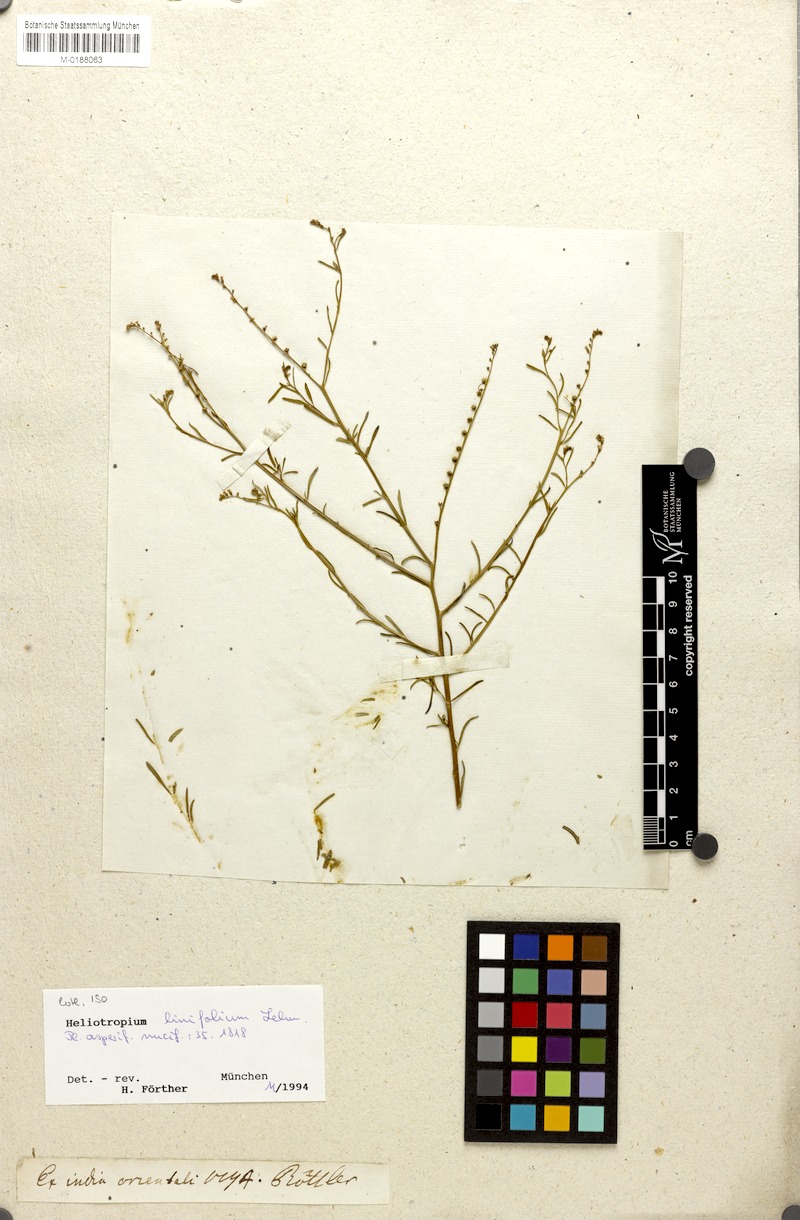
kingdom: Plantae
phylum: Tracheophyta
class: Magnoliopsida
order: Boraginales
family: Heliotropiaceae
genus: Heliotropium
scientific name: Heliotropium zeylanicum
